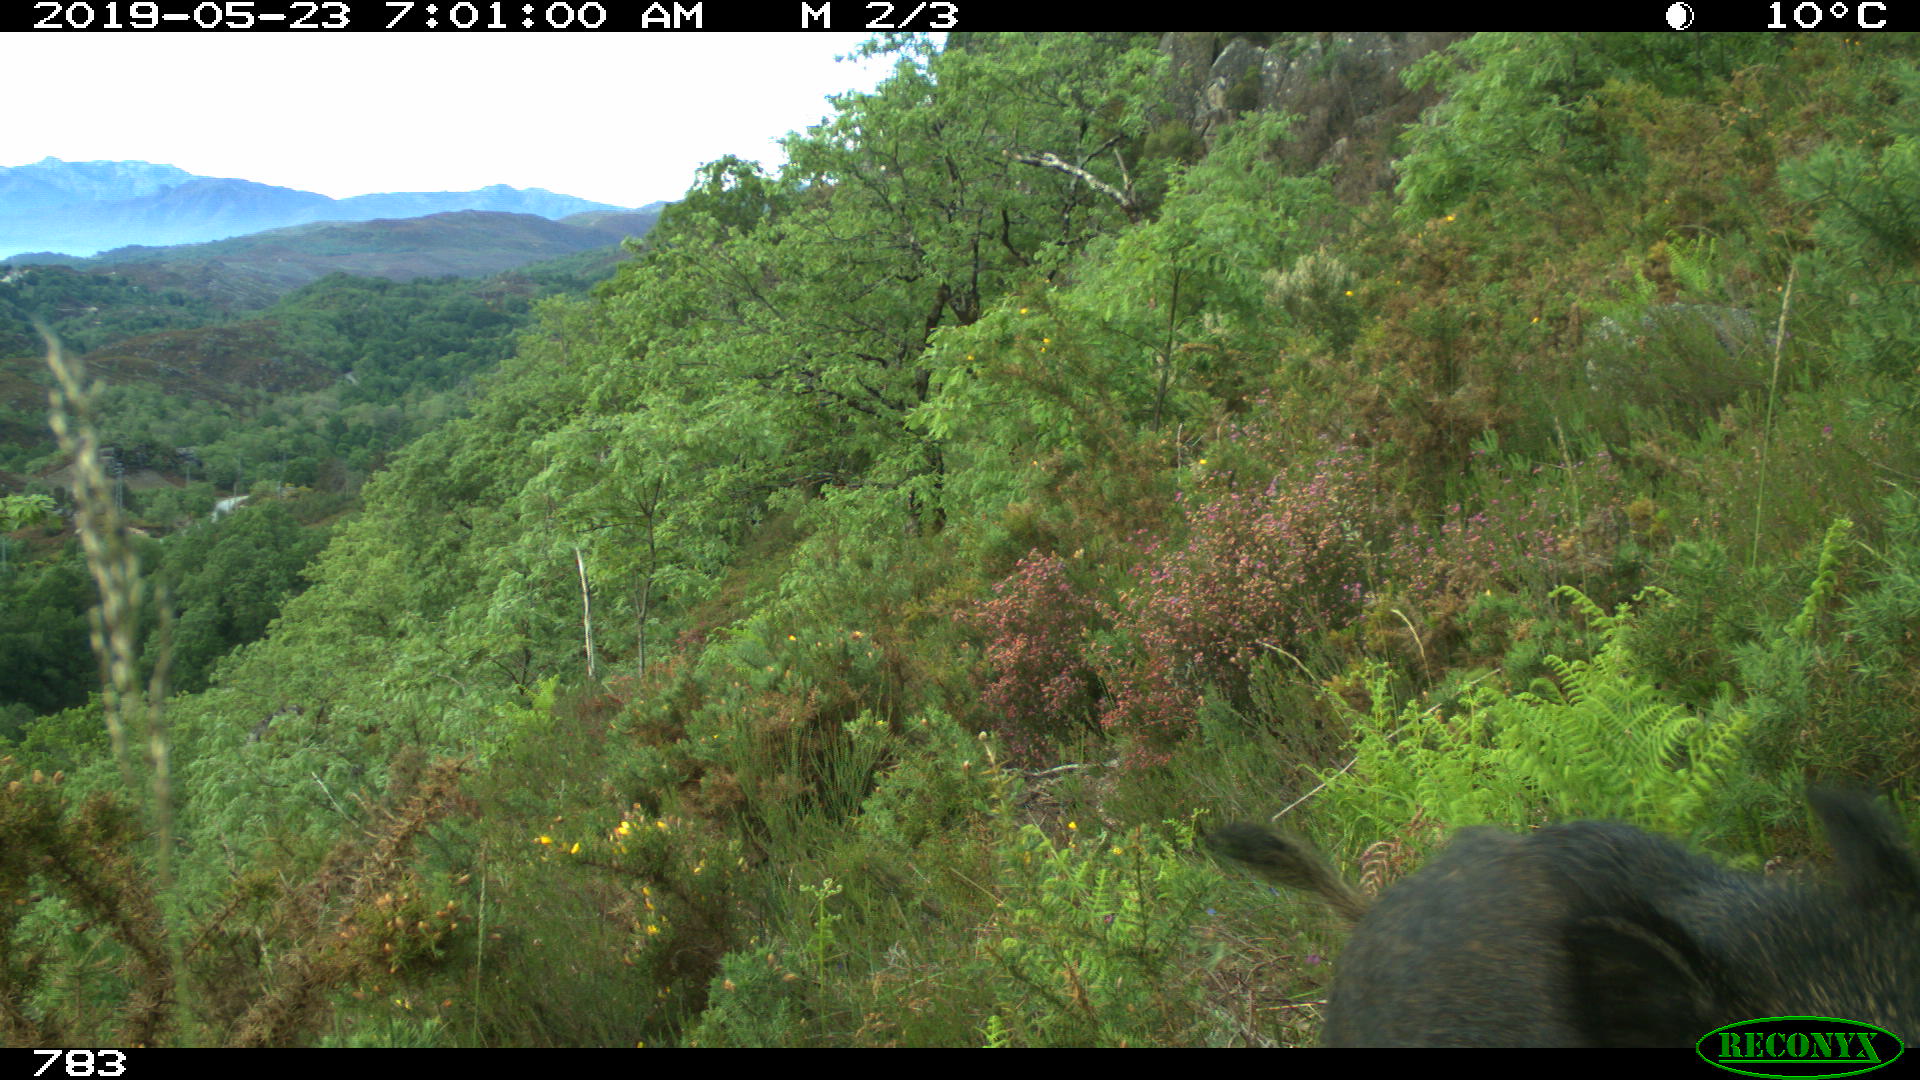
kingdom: Animalia
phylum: Chordata
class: Mammalia
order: Artiodactyla
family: Suidae
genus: Sus
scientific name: Sus scrofa
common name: Wild boar
